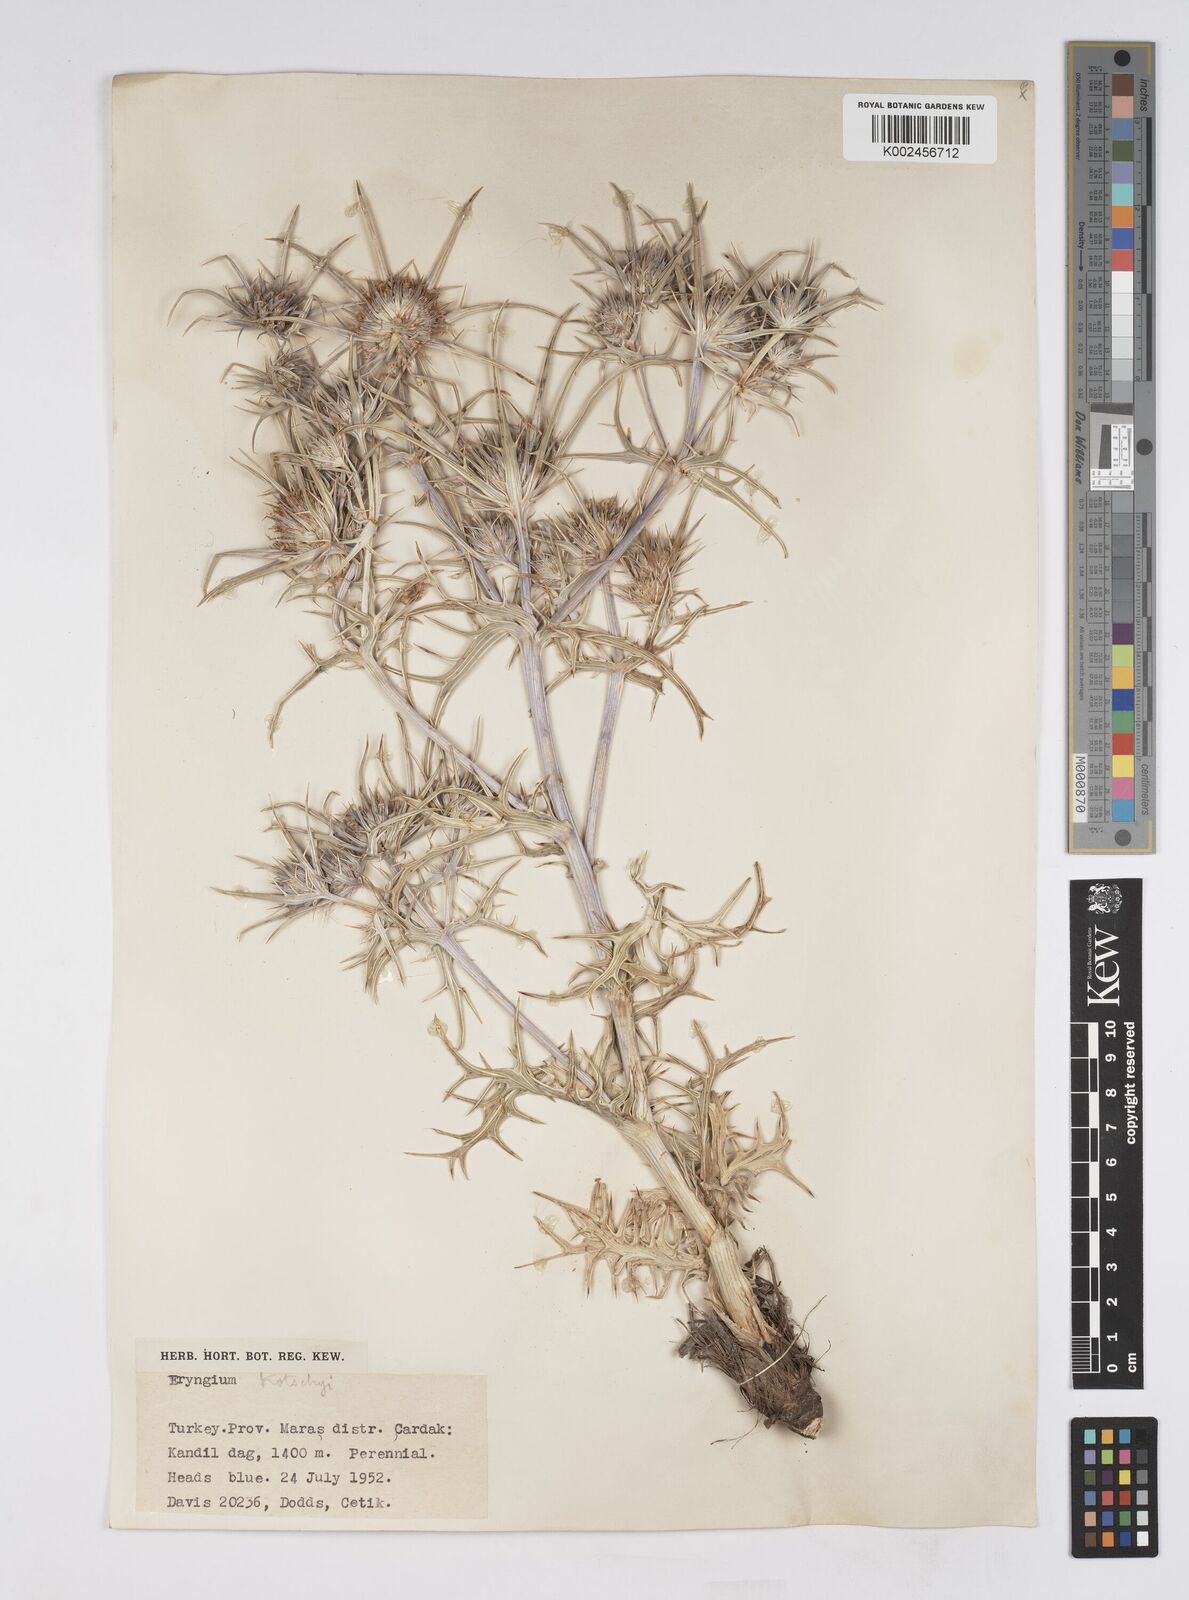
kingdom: Plantae
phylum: Tracheophyta
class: Magnoliopsida
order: Apiales
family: Apiaceae
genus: Eryngium
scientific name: Eryngium
